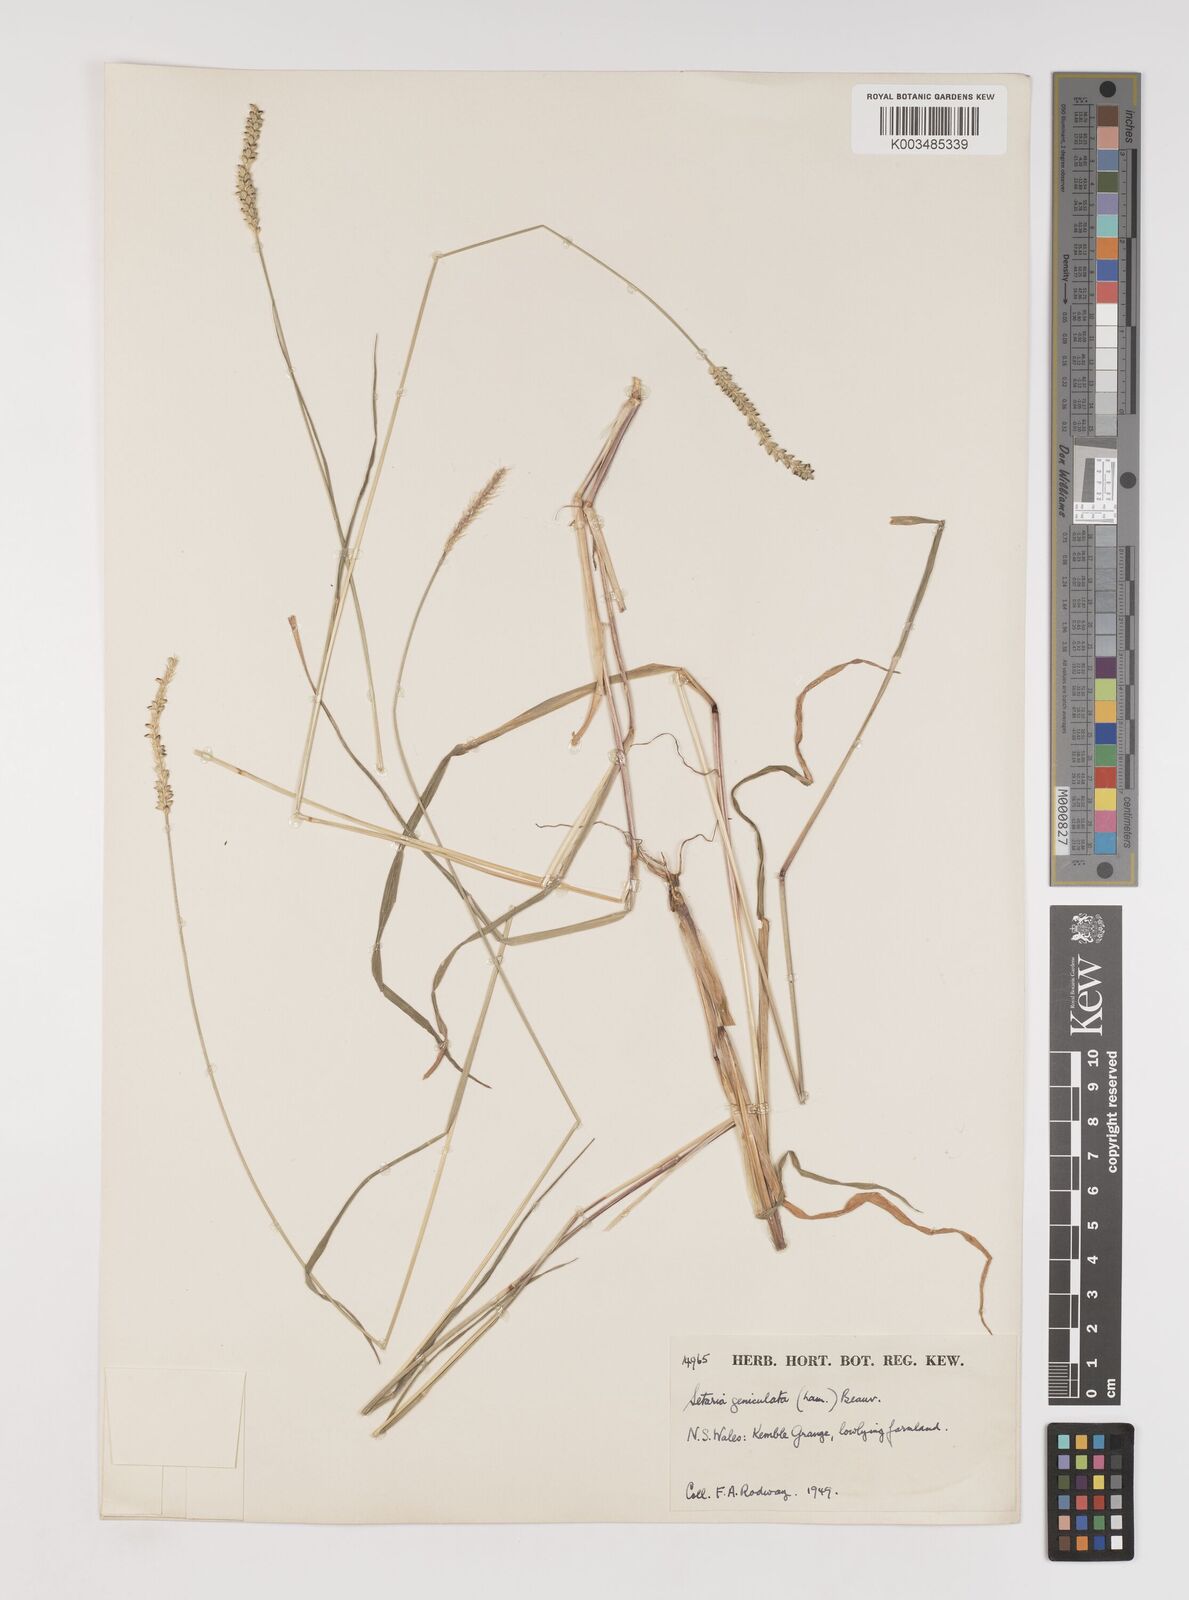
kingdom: Plantae
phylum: Tracheophyta
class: Liliopsida
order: Poales
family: Poaceae
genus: Setaria
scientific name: Setaria parviflora
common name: Knotroot bristle-grass
